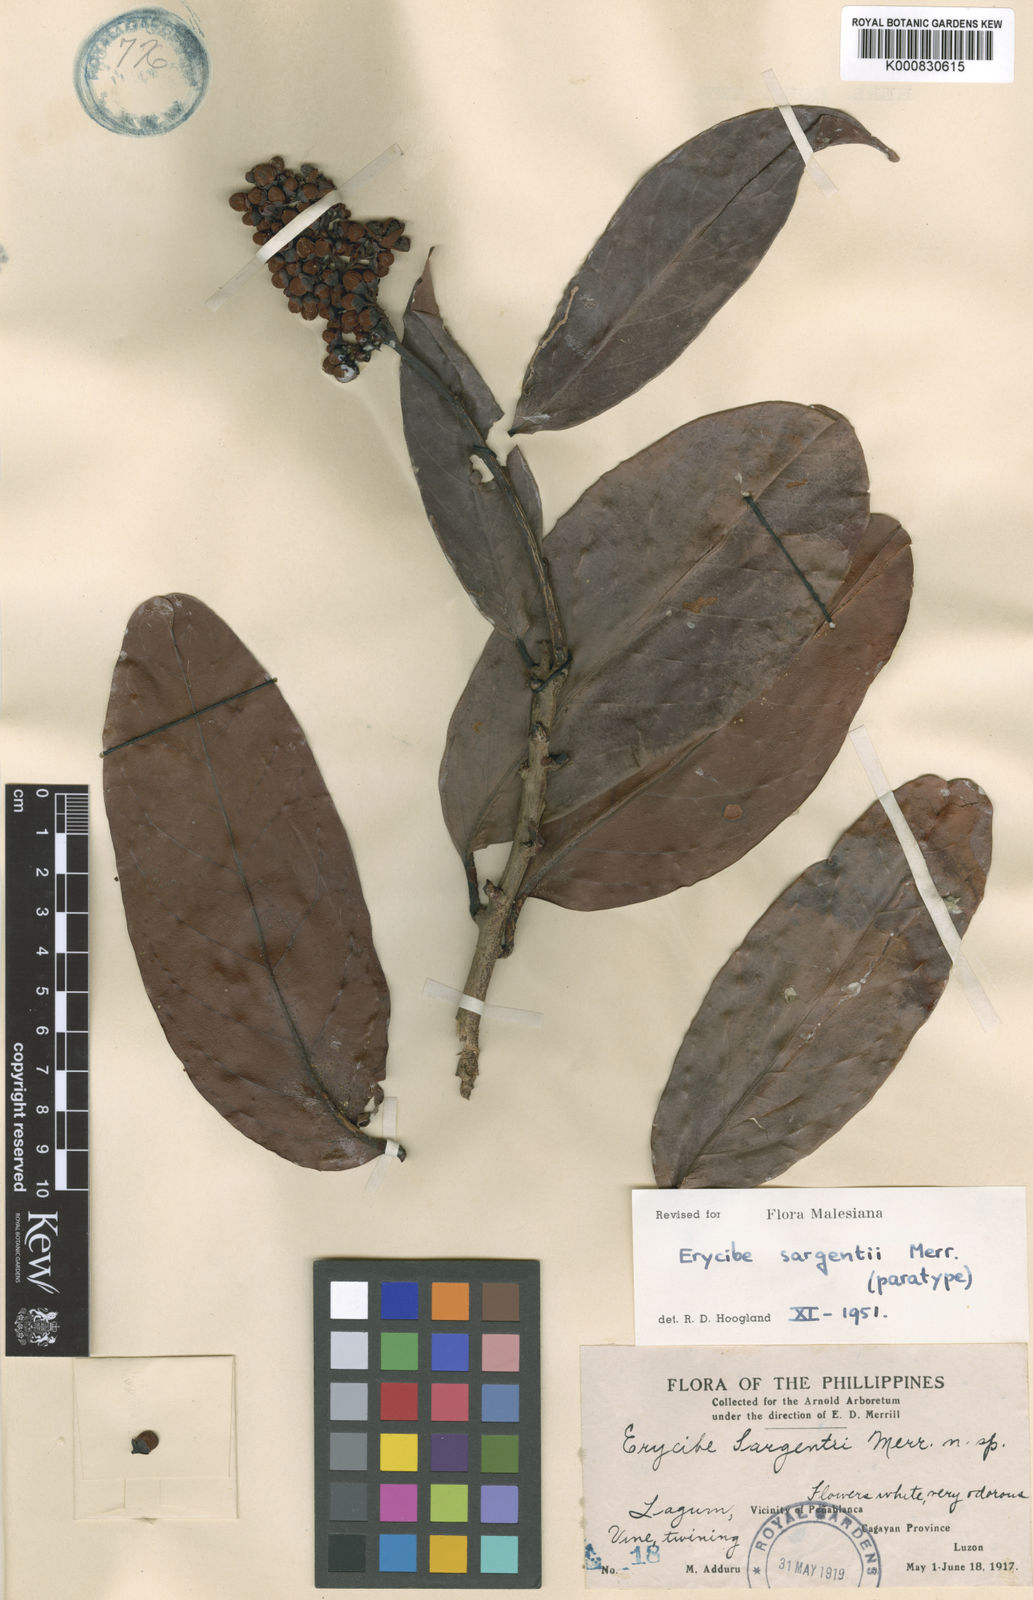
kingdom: Plantae
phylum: Tracheophyta
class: Magnoliopsida
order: Solanales
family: Convolvulaceae
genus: Erycibe
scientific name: Erycibe sargentii
